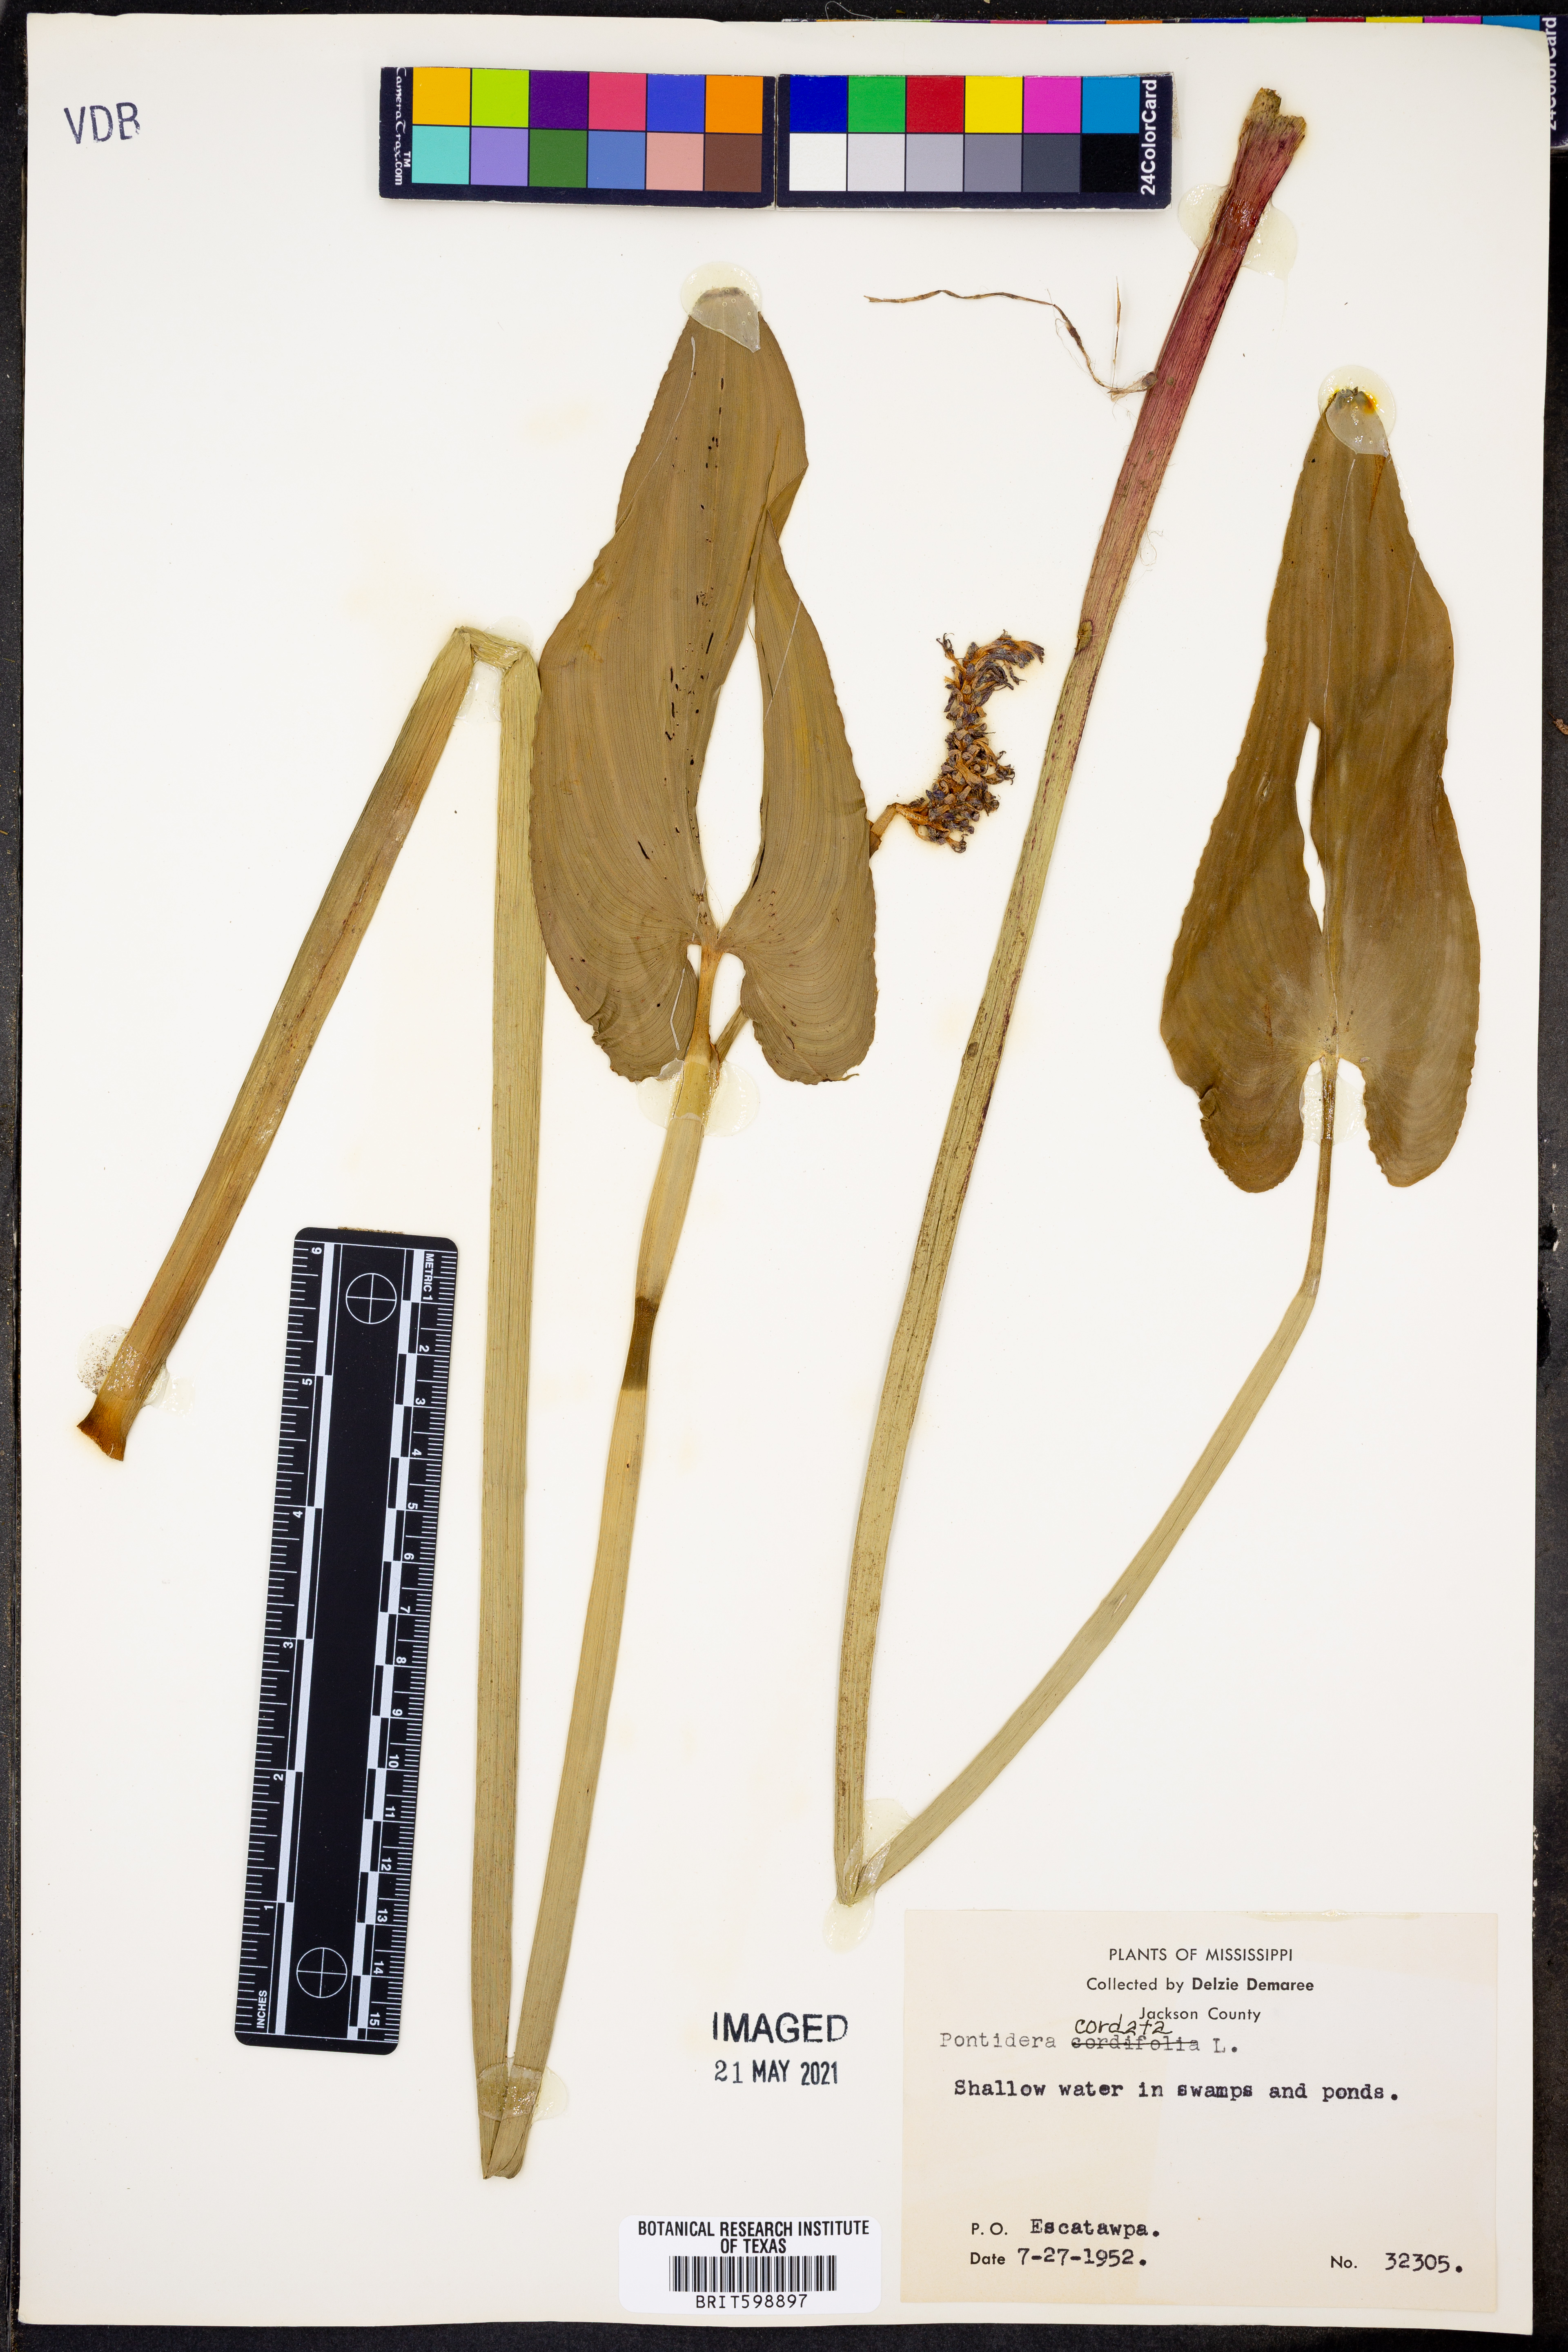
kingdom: Plantae
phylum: Tracheophyta
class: Liliopsida
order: Commelinales
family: Pontederiaceae
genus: Pontederia
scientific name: Pontederia cordata
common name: Pickerelweed
